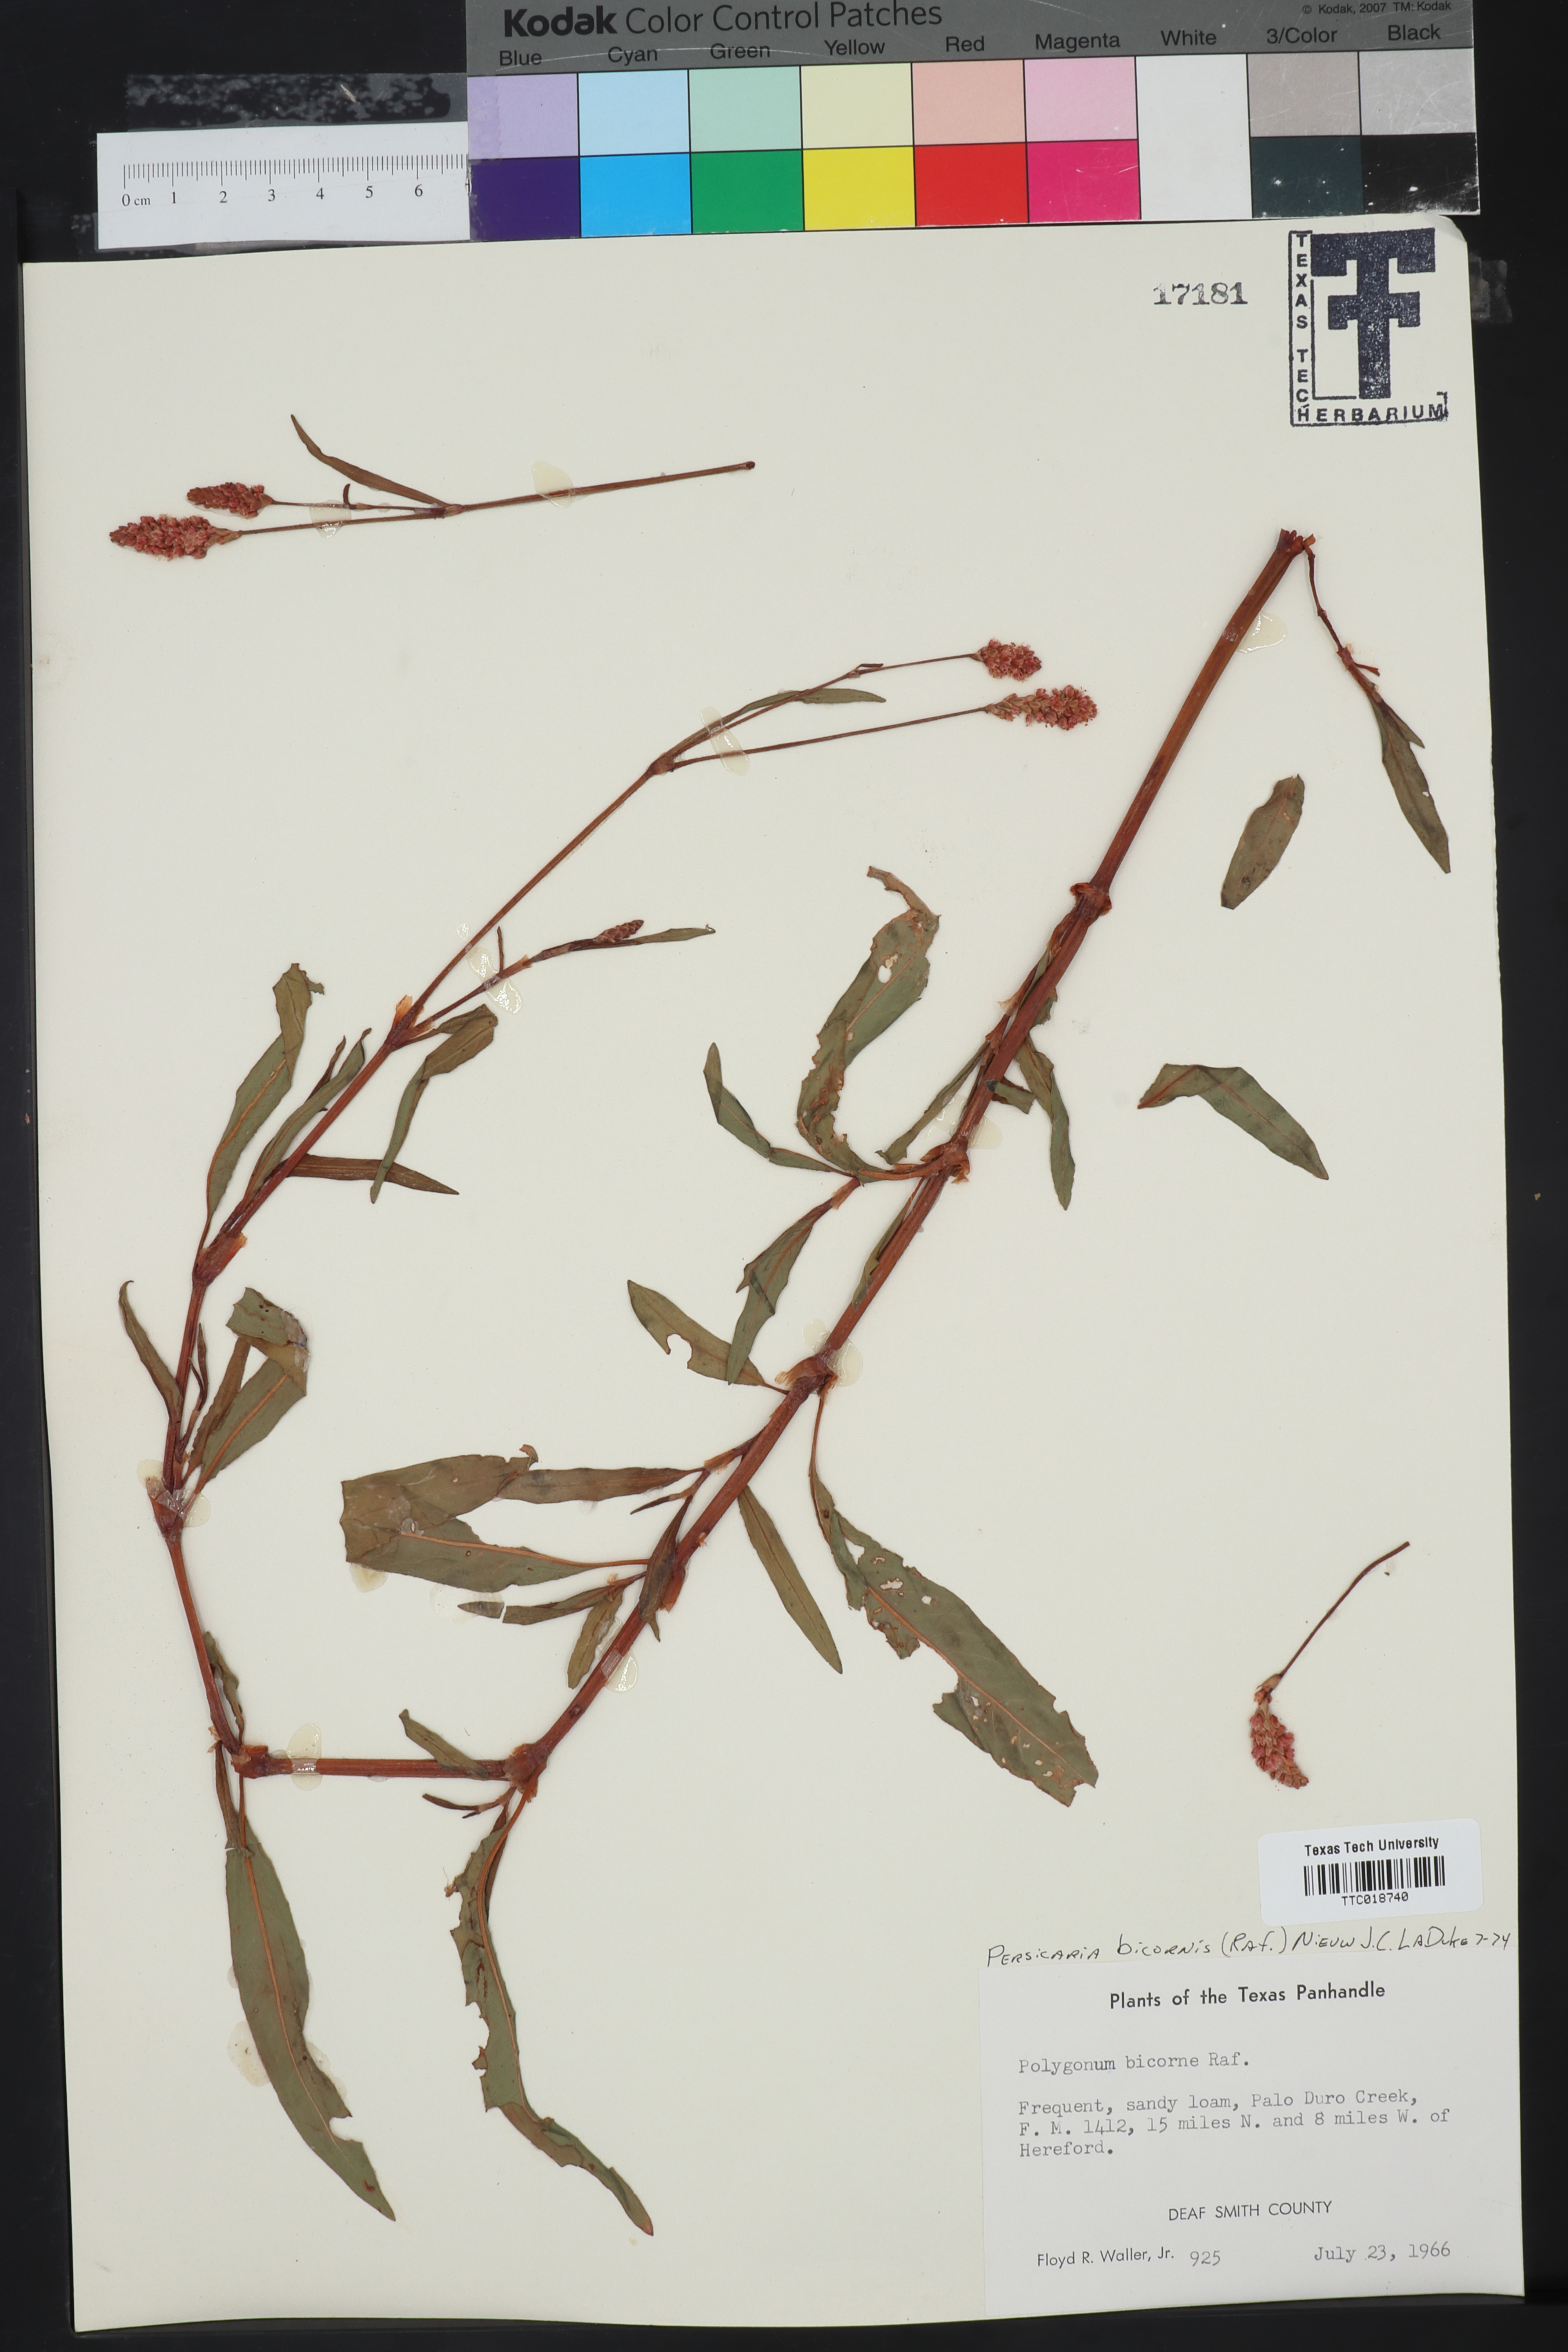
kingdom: Plantae
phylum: Tracheophyta
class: Magnoliopsida
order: Caryophyllales
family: Polygonaceae
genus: Persicaria
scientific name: Persicaria bicornis
